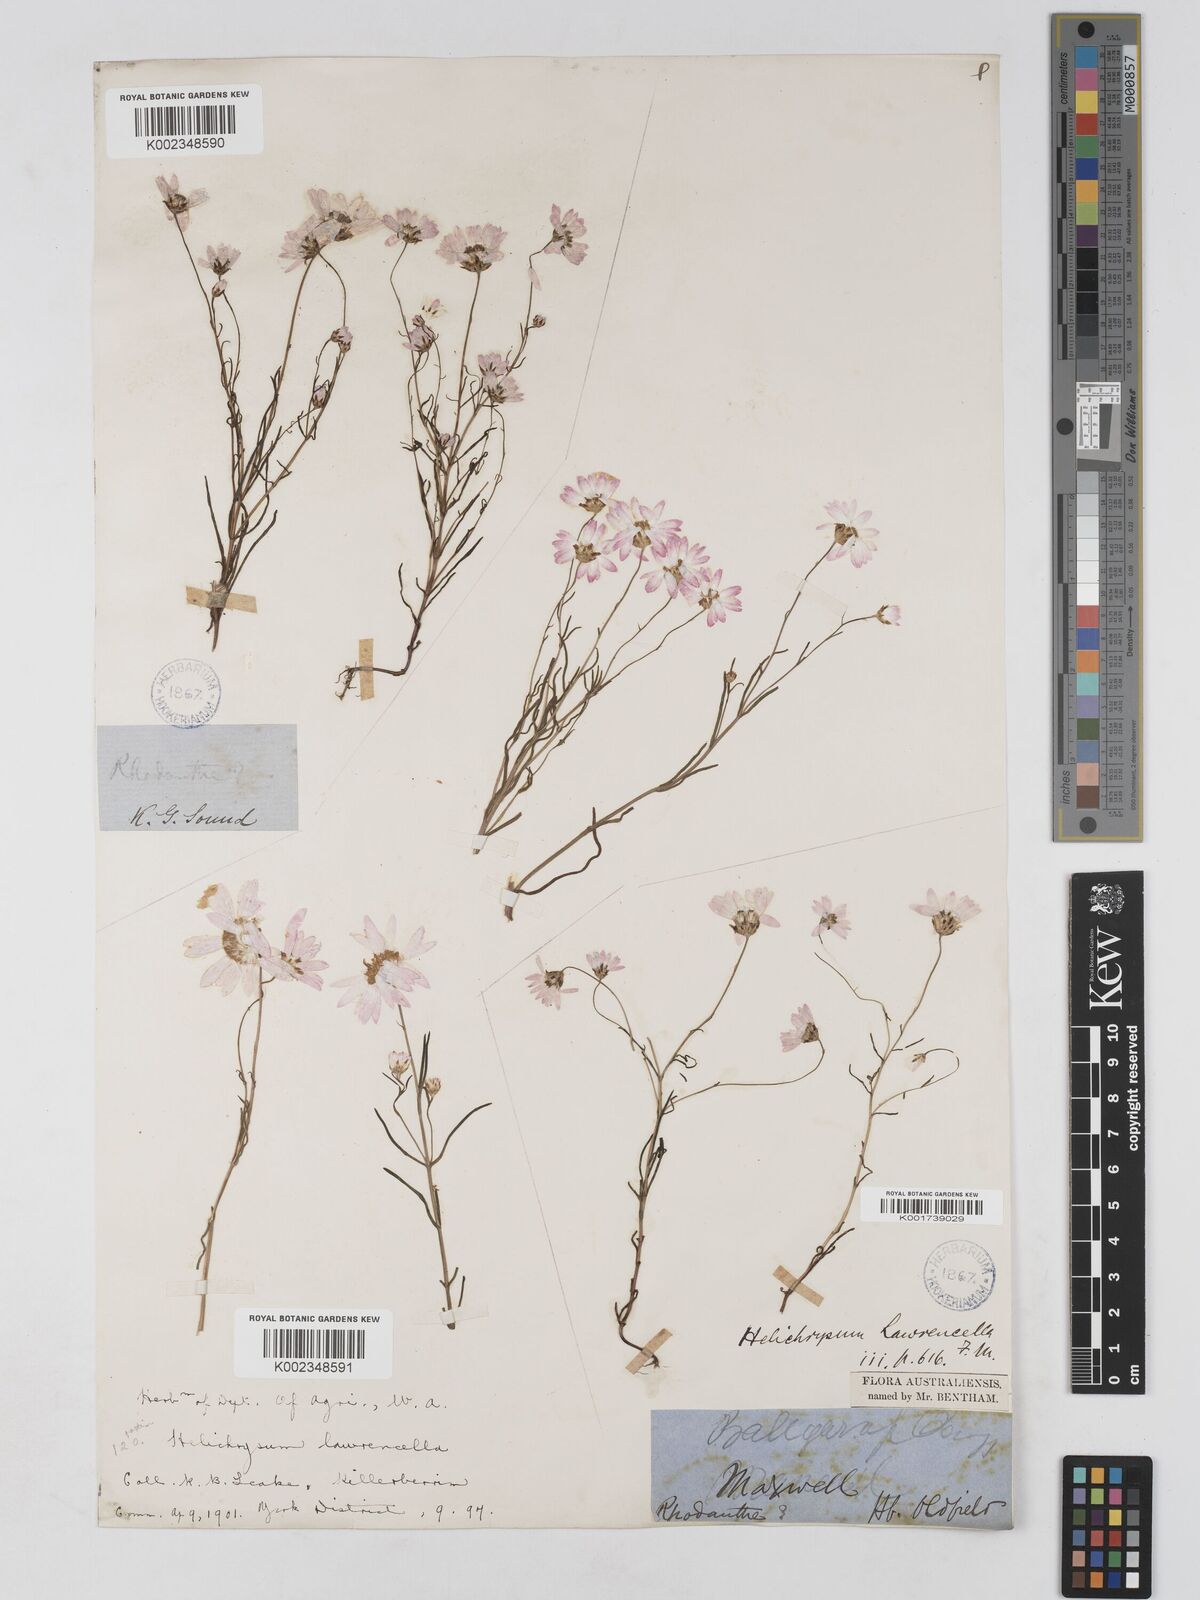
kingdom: Plantae
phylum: Tracheophyta
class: Magnoliopsida
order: Asterales
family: Asteraceae
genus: Lawrencella
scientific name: Lawrencella rosea
